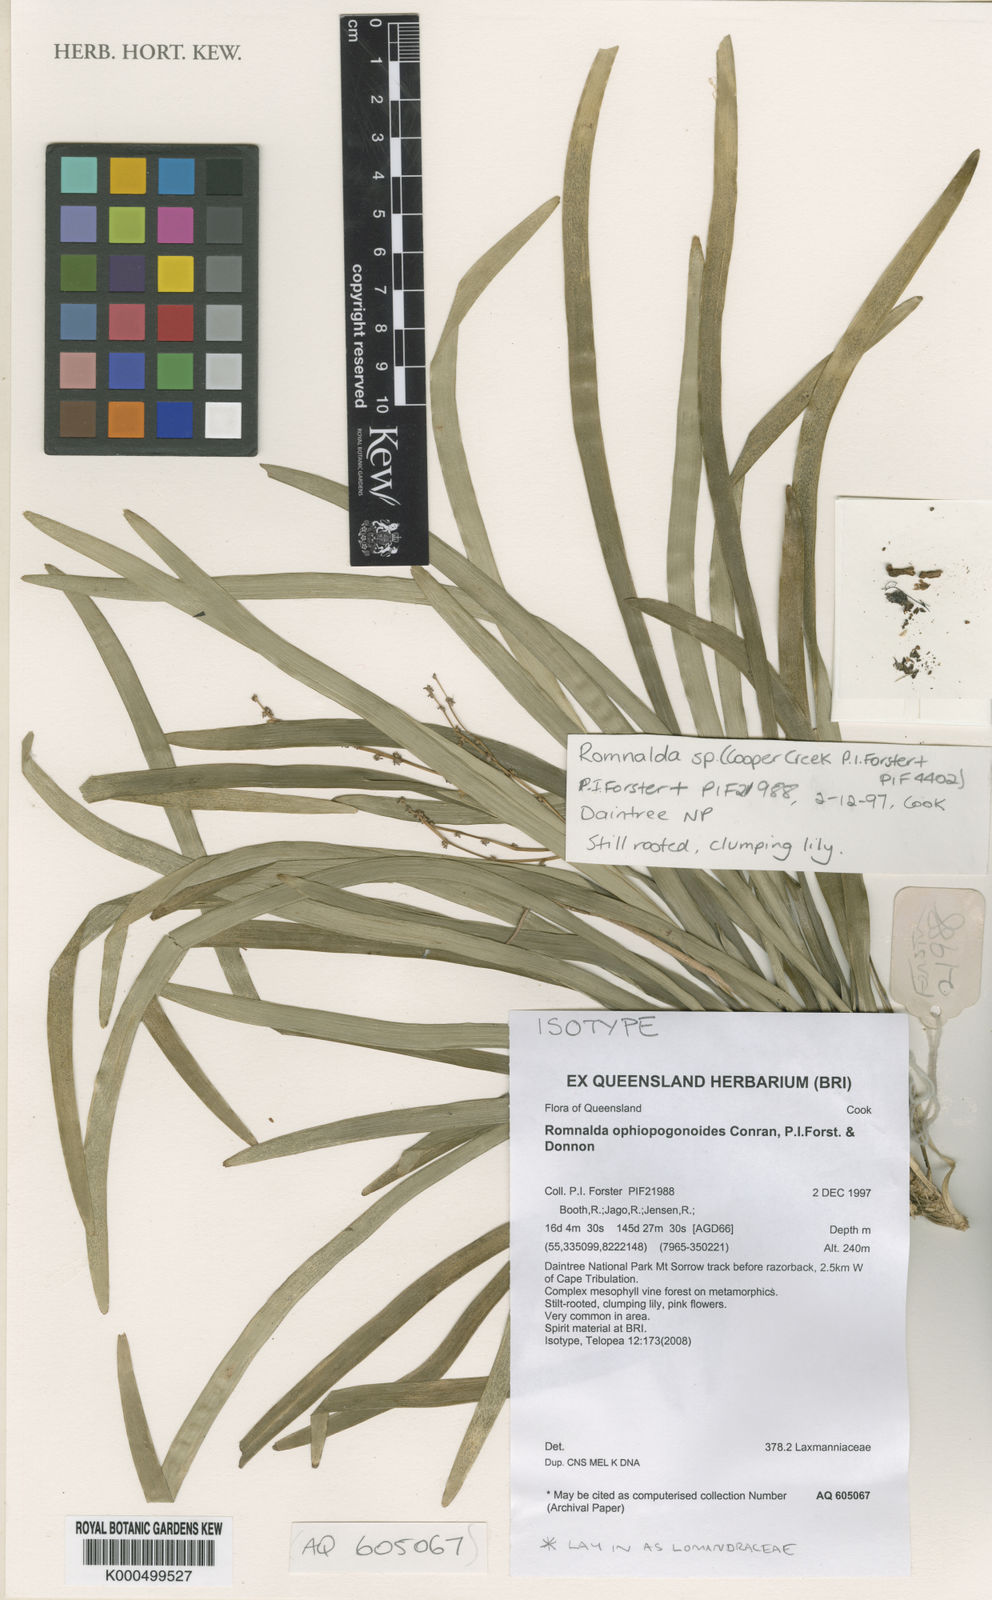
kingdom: Plantae
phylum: Tracheophyta
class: Liliopsida
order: Asparagales
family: Asparagaceae
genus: Romnalda
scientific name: Romnalda ophiopogonoides
